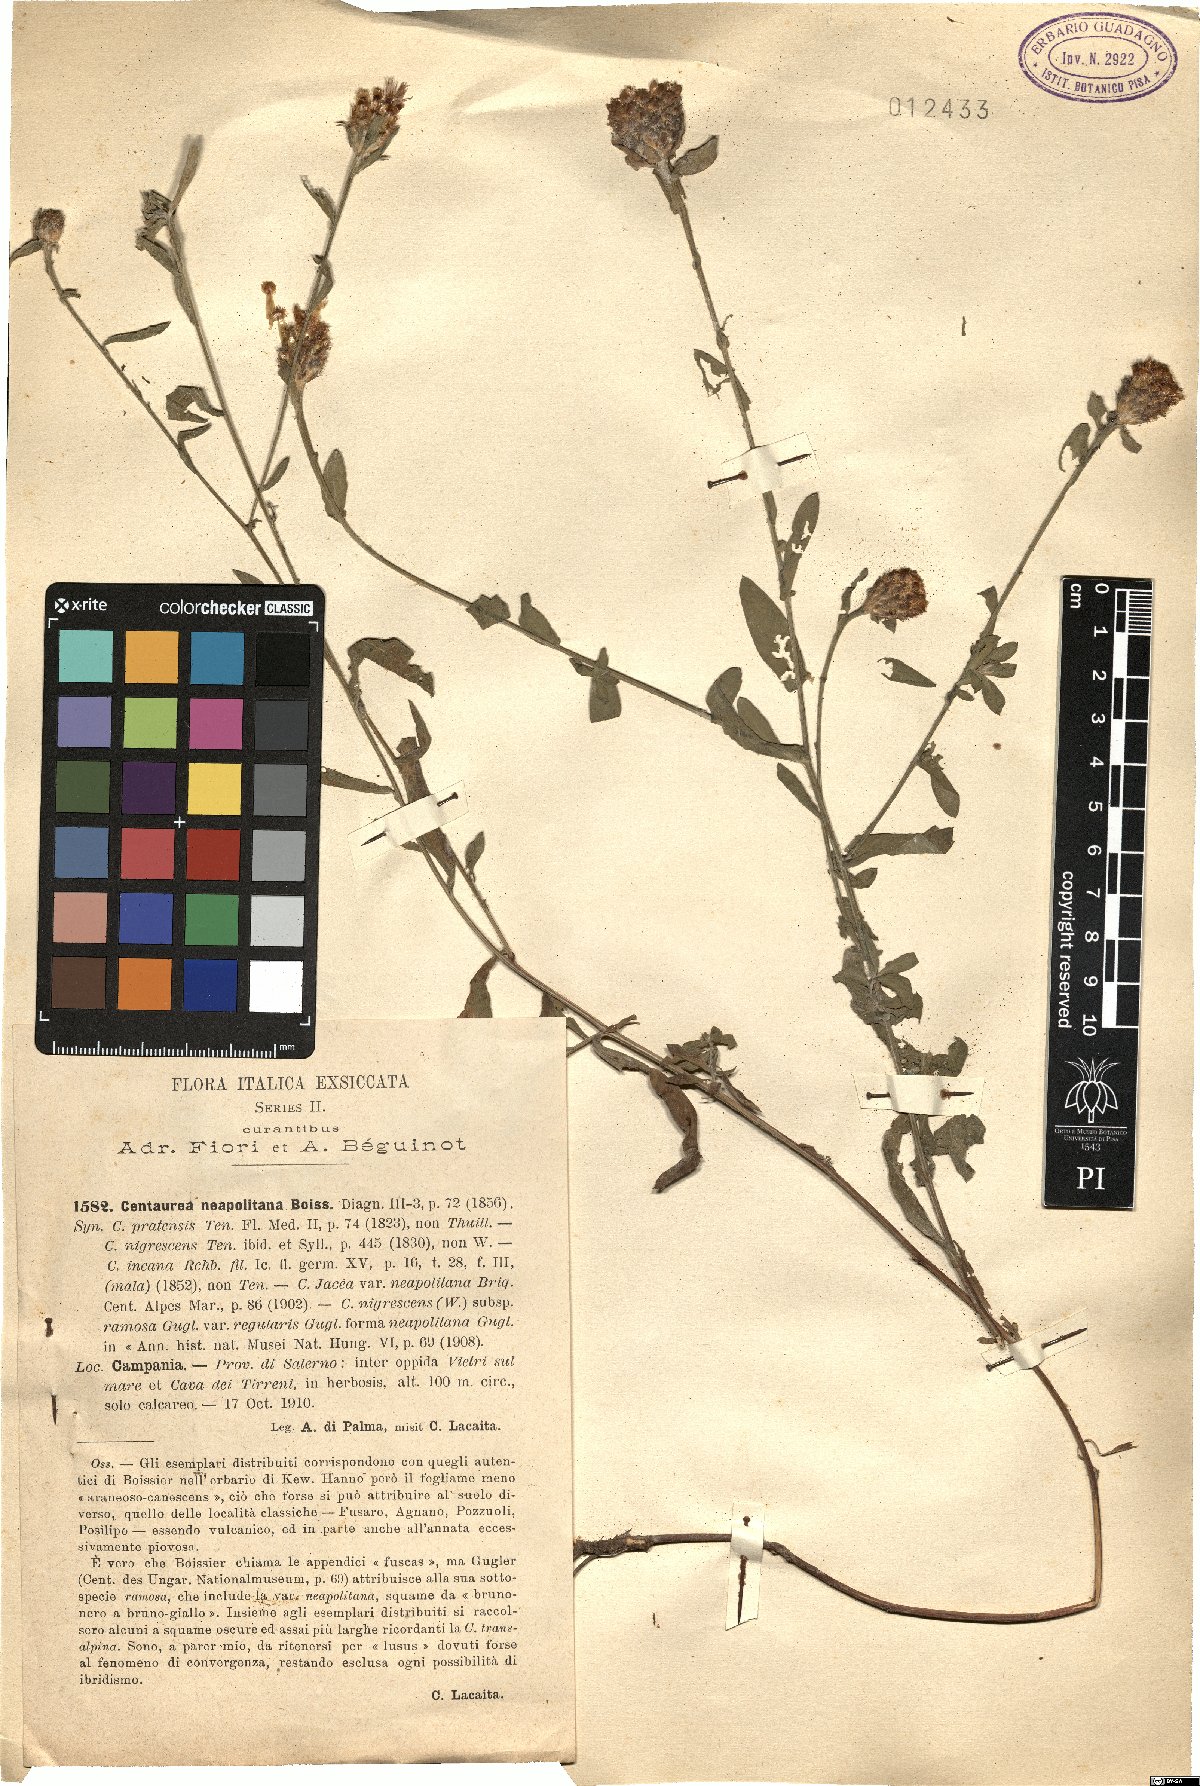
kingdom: Plantae
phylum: Tracheophyta
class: Magnoliopsida
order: Asterales
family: Asteraceae
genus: Centaurea
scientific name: Centaurea nigrescens
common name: Tyrol knapweed
